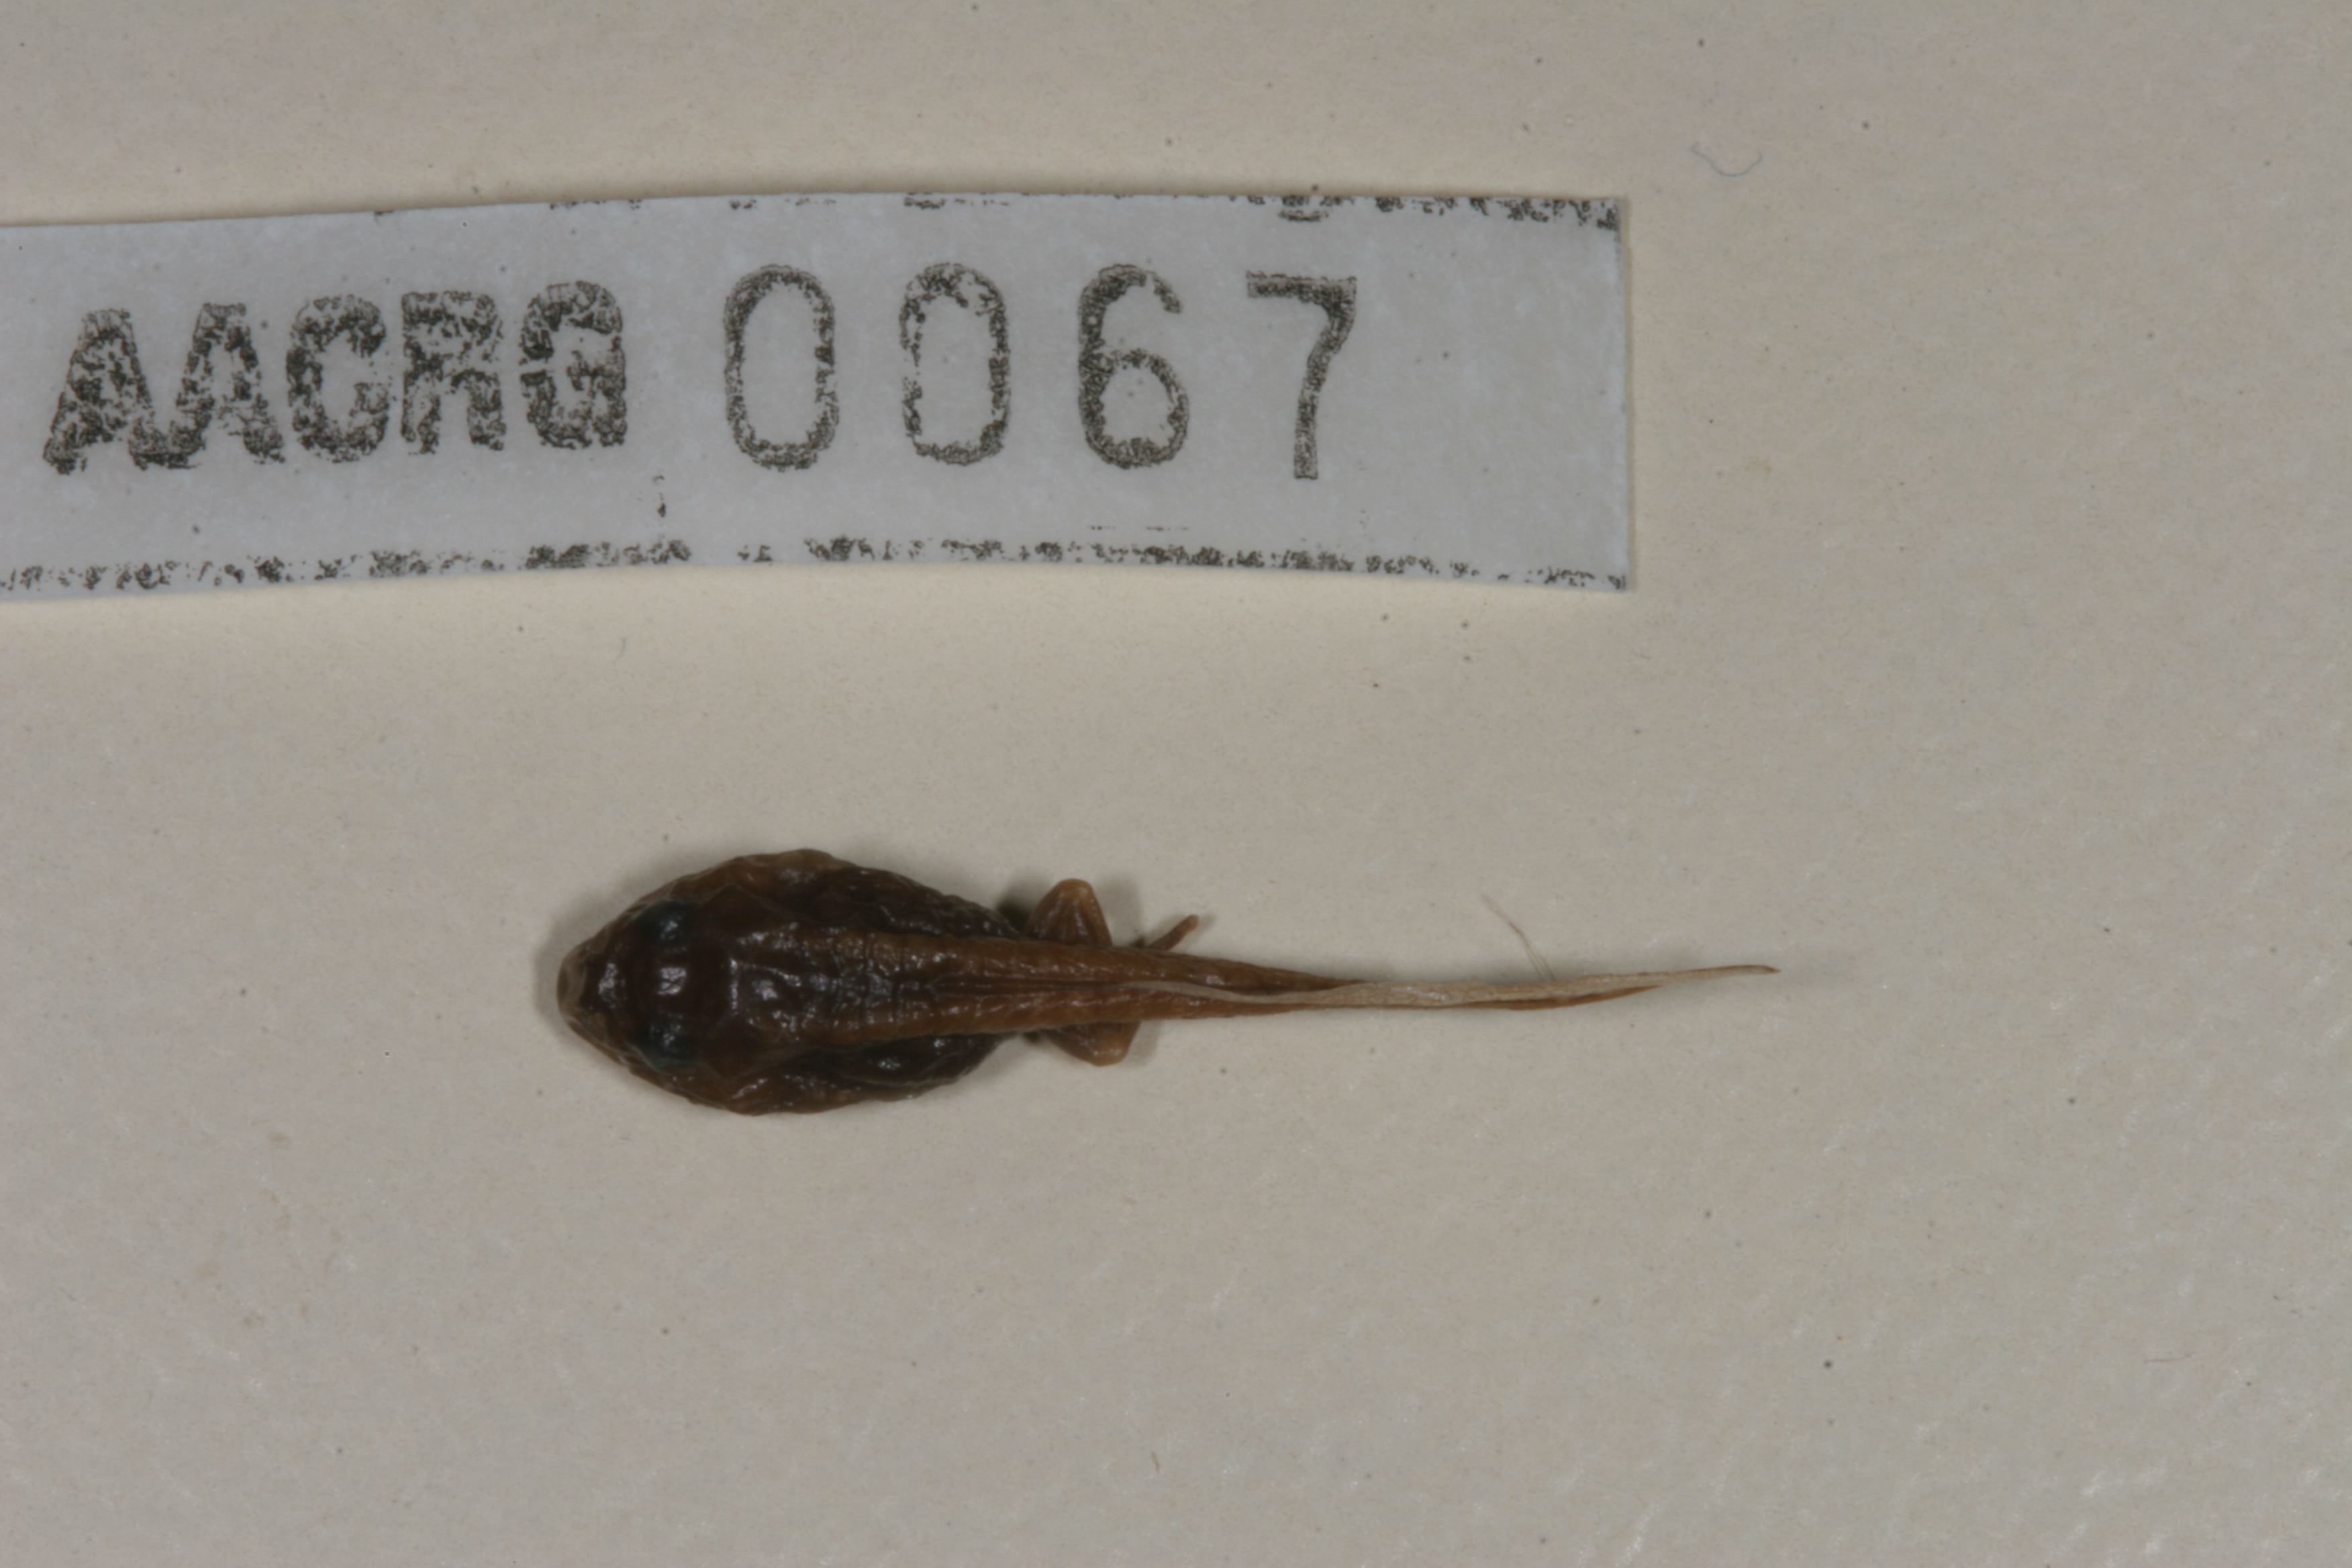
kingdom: Animalia
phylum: Chordata
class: Amphibia
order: Anura
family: Bufonidae
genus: Sclerophrys
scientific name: Sclerophrys maculata
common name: Hallowell's toad
